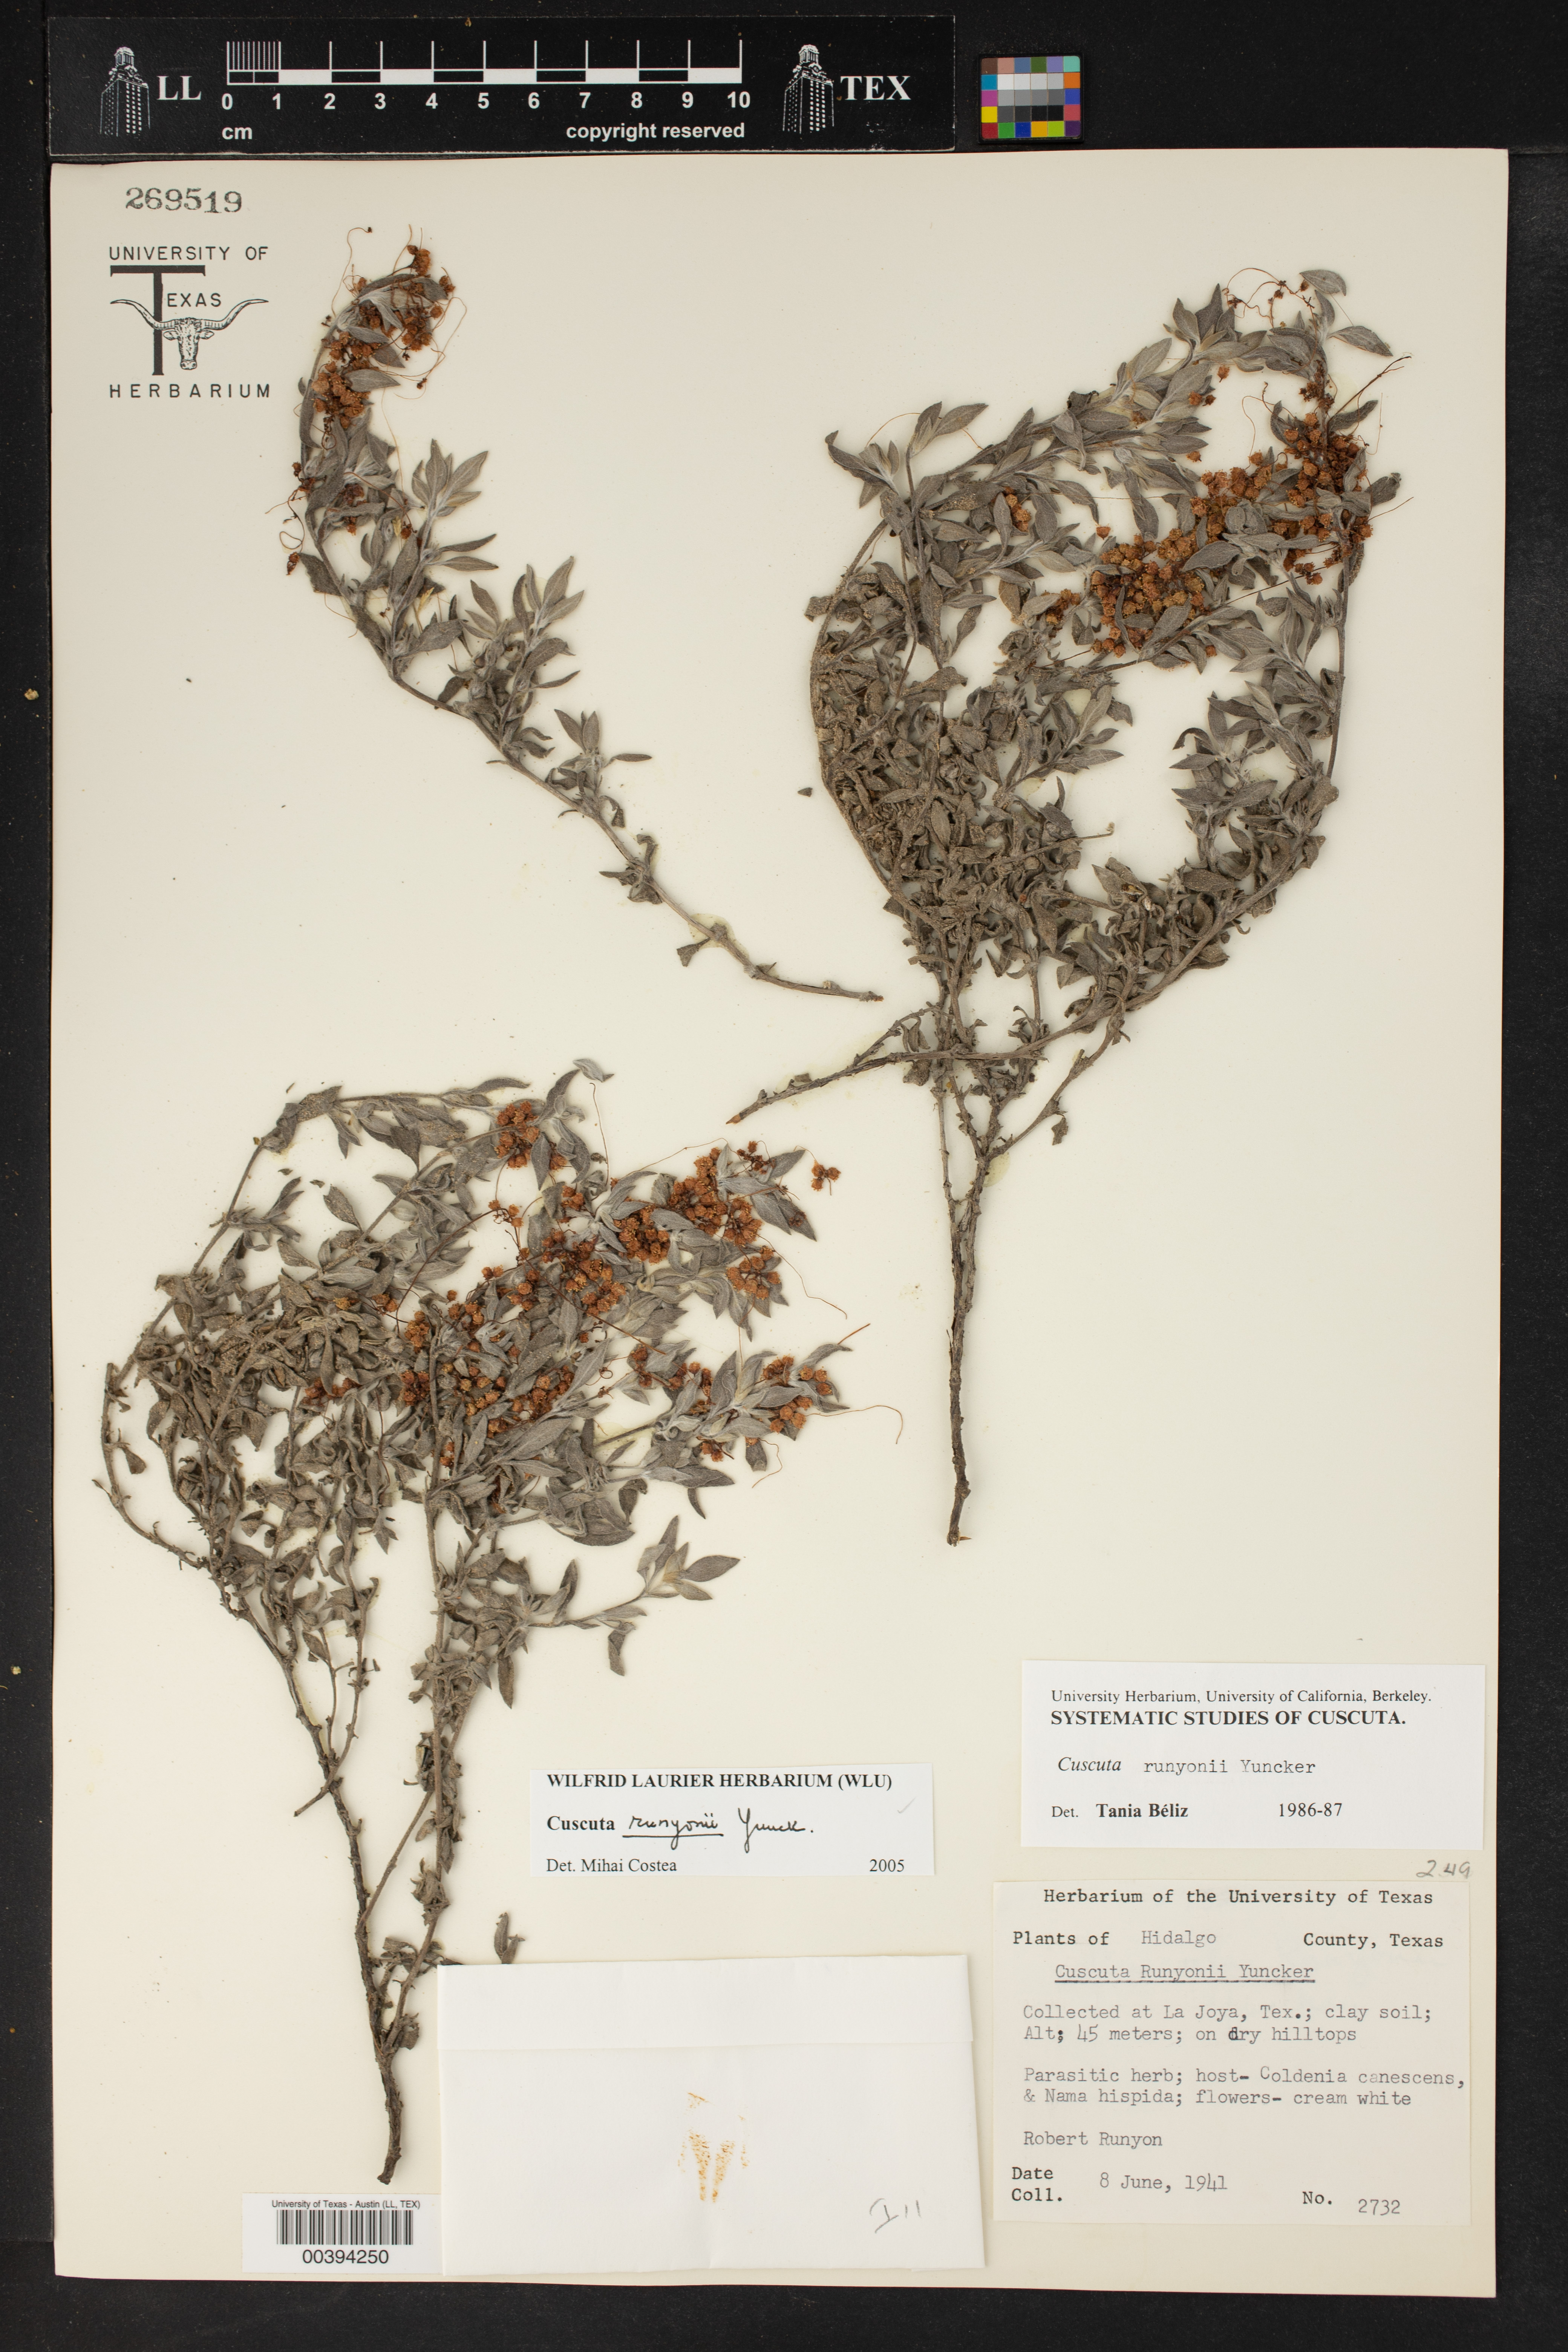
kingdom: Plantae
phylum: Tracheophyta
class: Magnoliopsida
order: Solanales
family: Convolvulaceae
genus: Cuscuta
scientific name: Cuscuta runyonii
